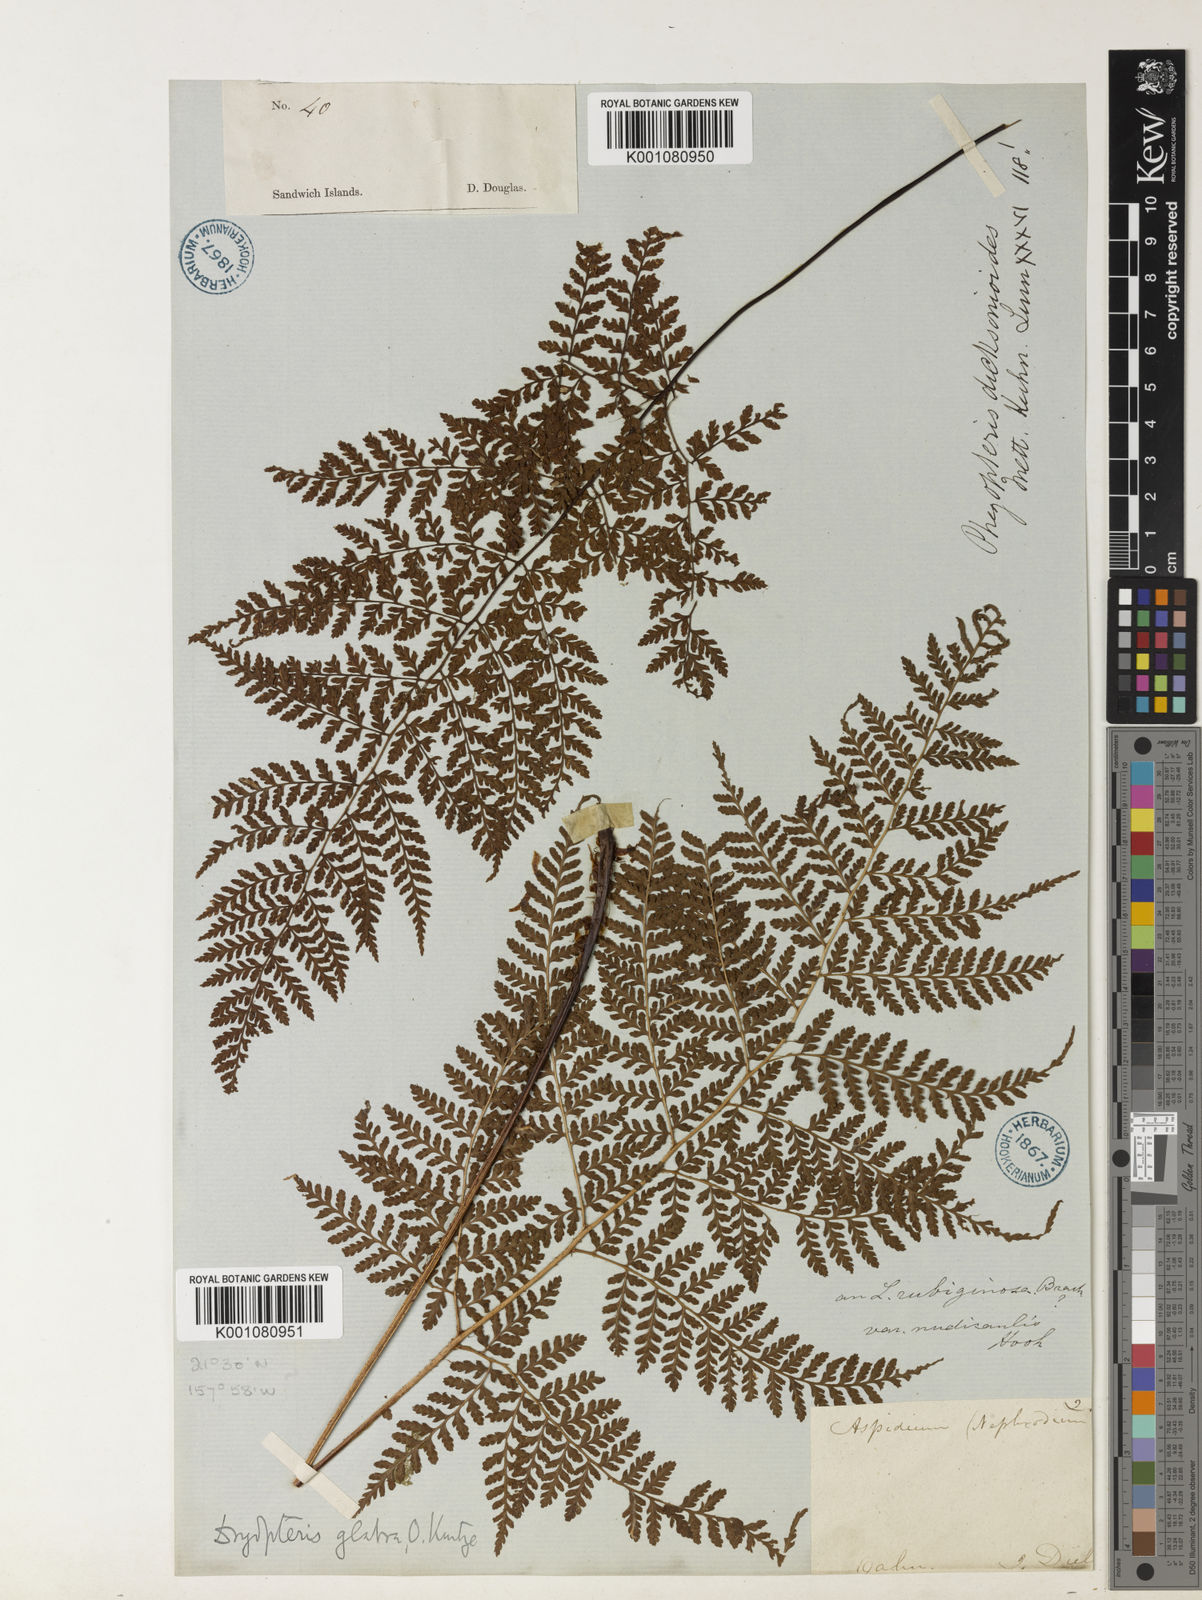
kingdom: Plantae
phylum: Tracheophyta
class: Polypodiopsida
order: Polypodiales
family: Dryopteridaceae
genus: Dryopteris
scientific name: Dryopteris glabra
